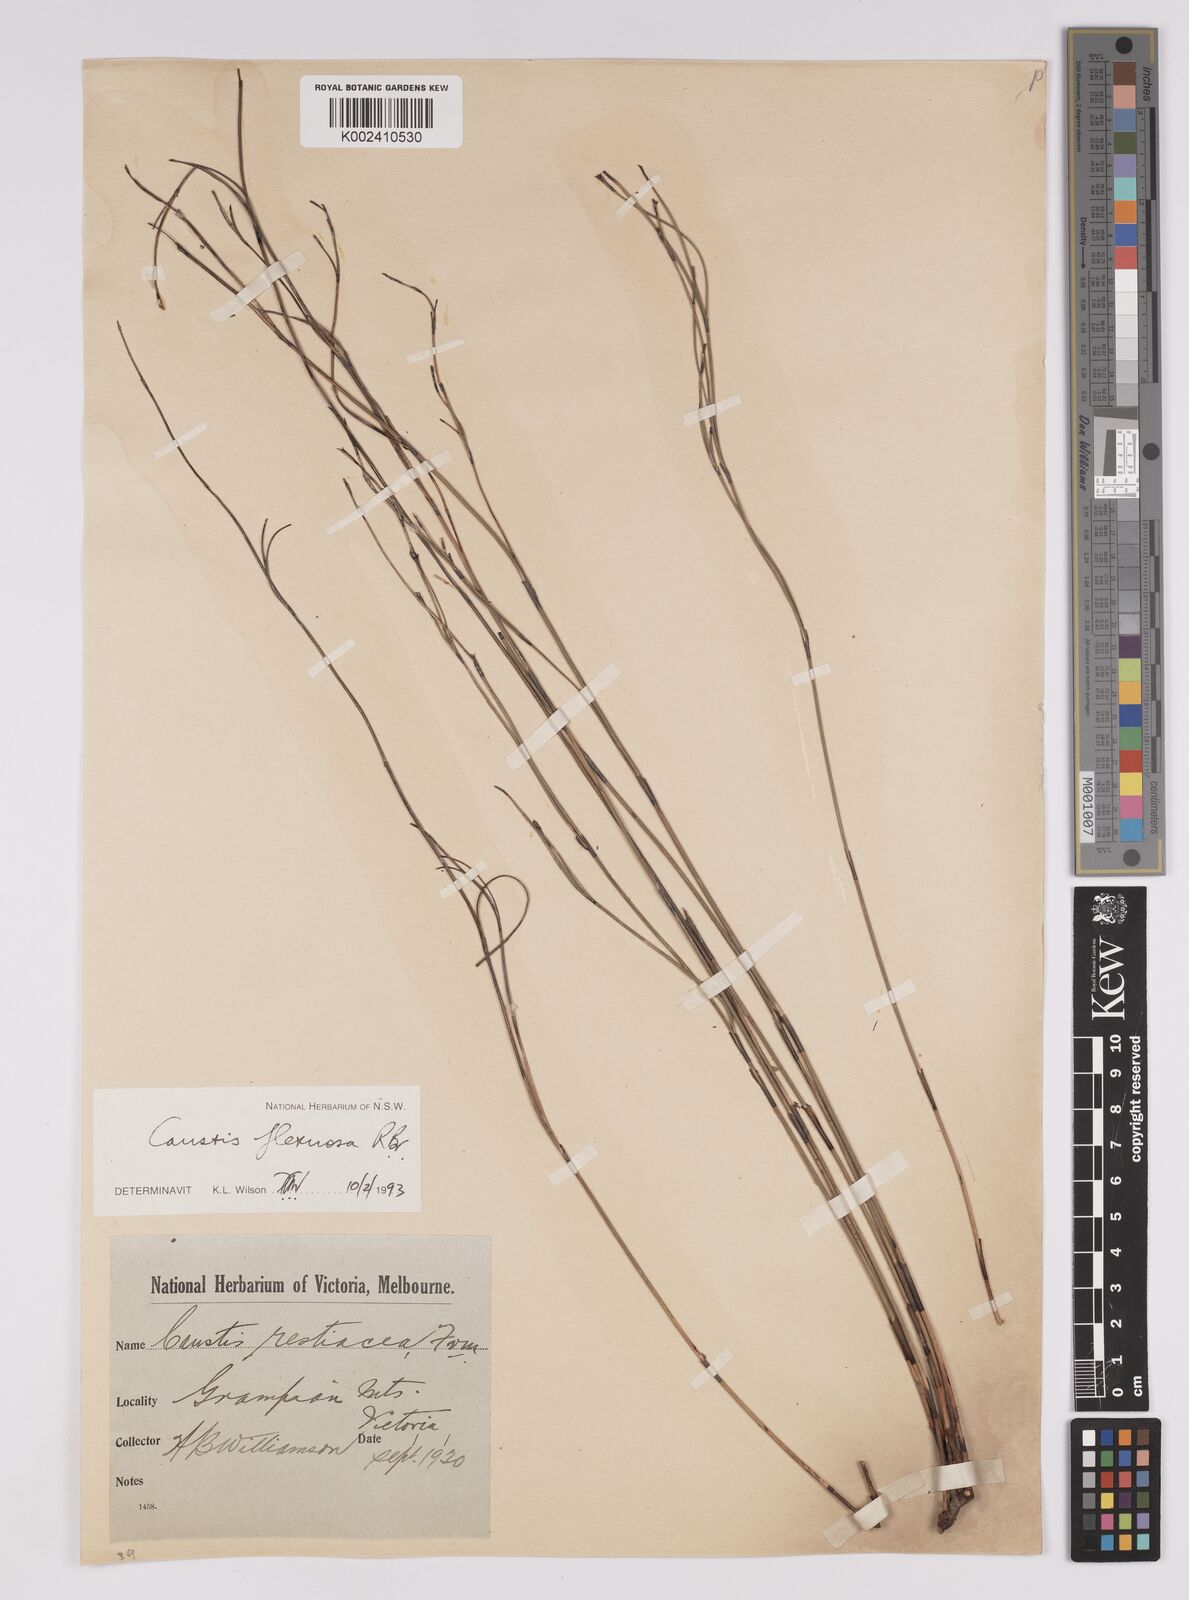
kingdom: Plantae
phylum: Tracheophyta
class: Liliopsida
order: Poales
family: Cyperaceae
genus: Caustis
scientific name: Caustis flexuosa
